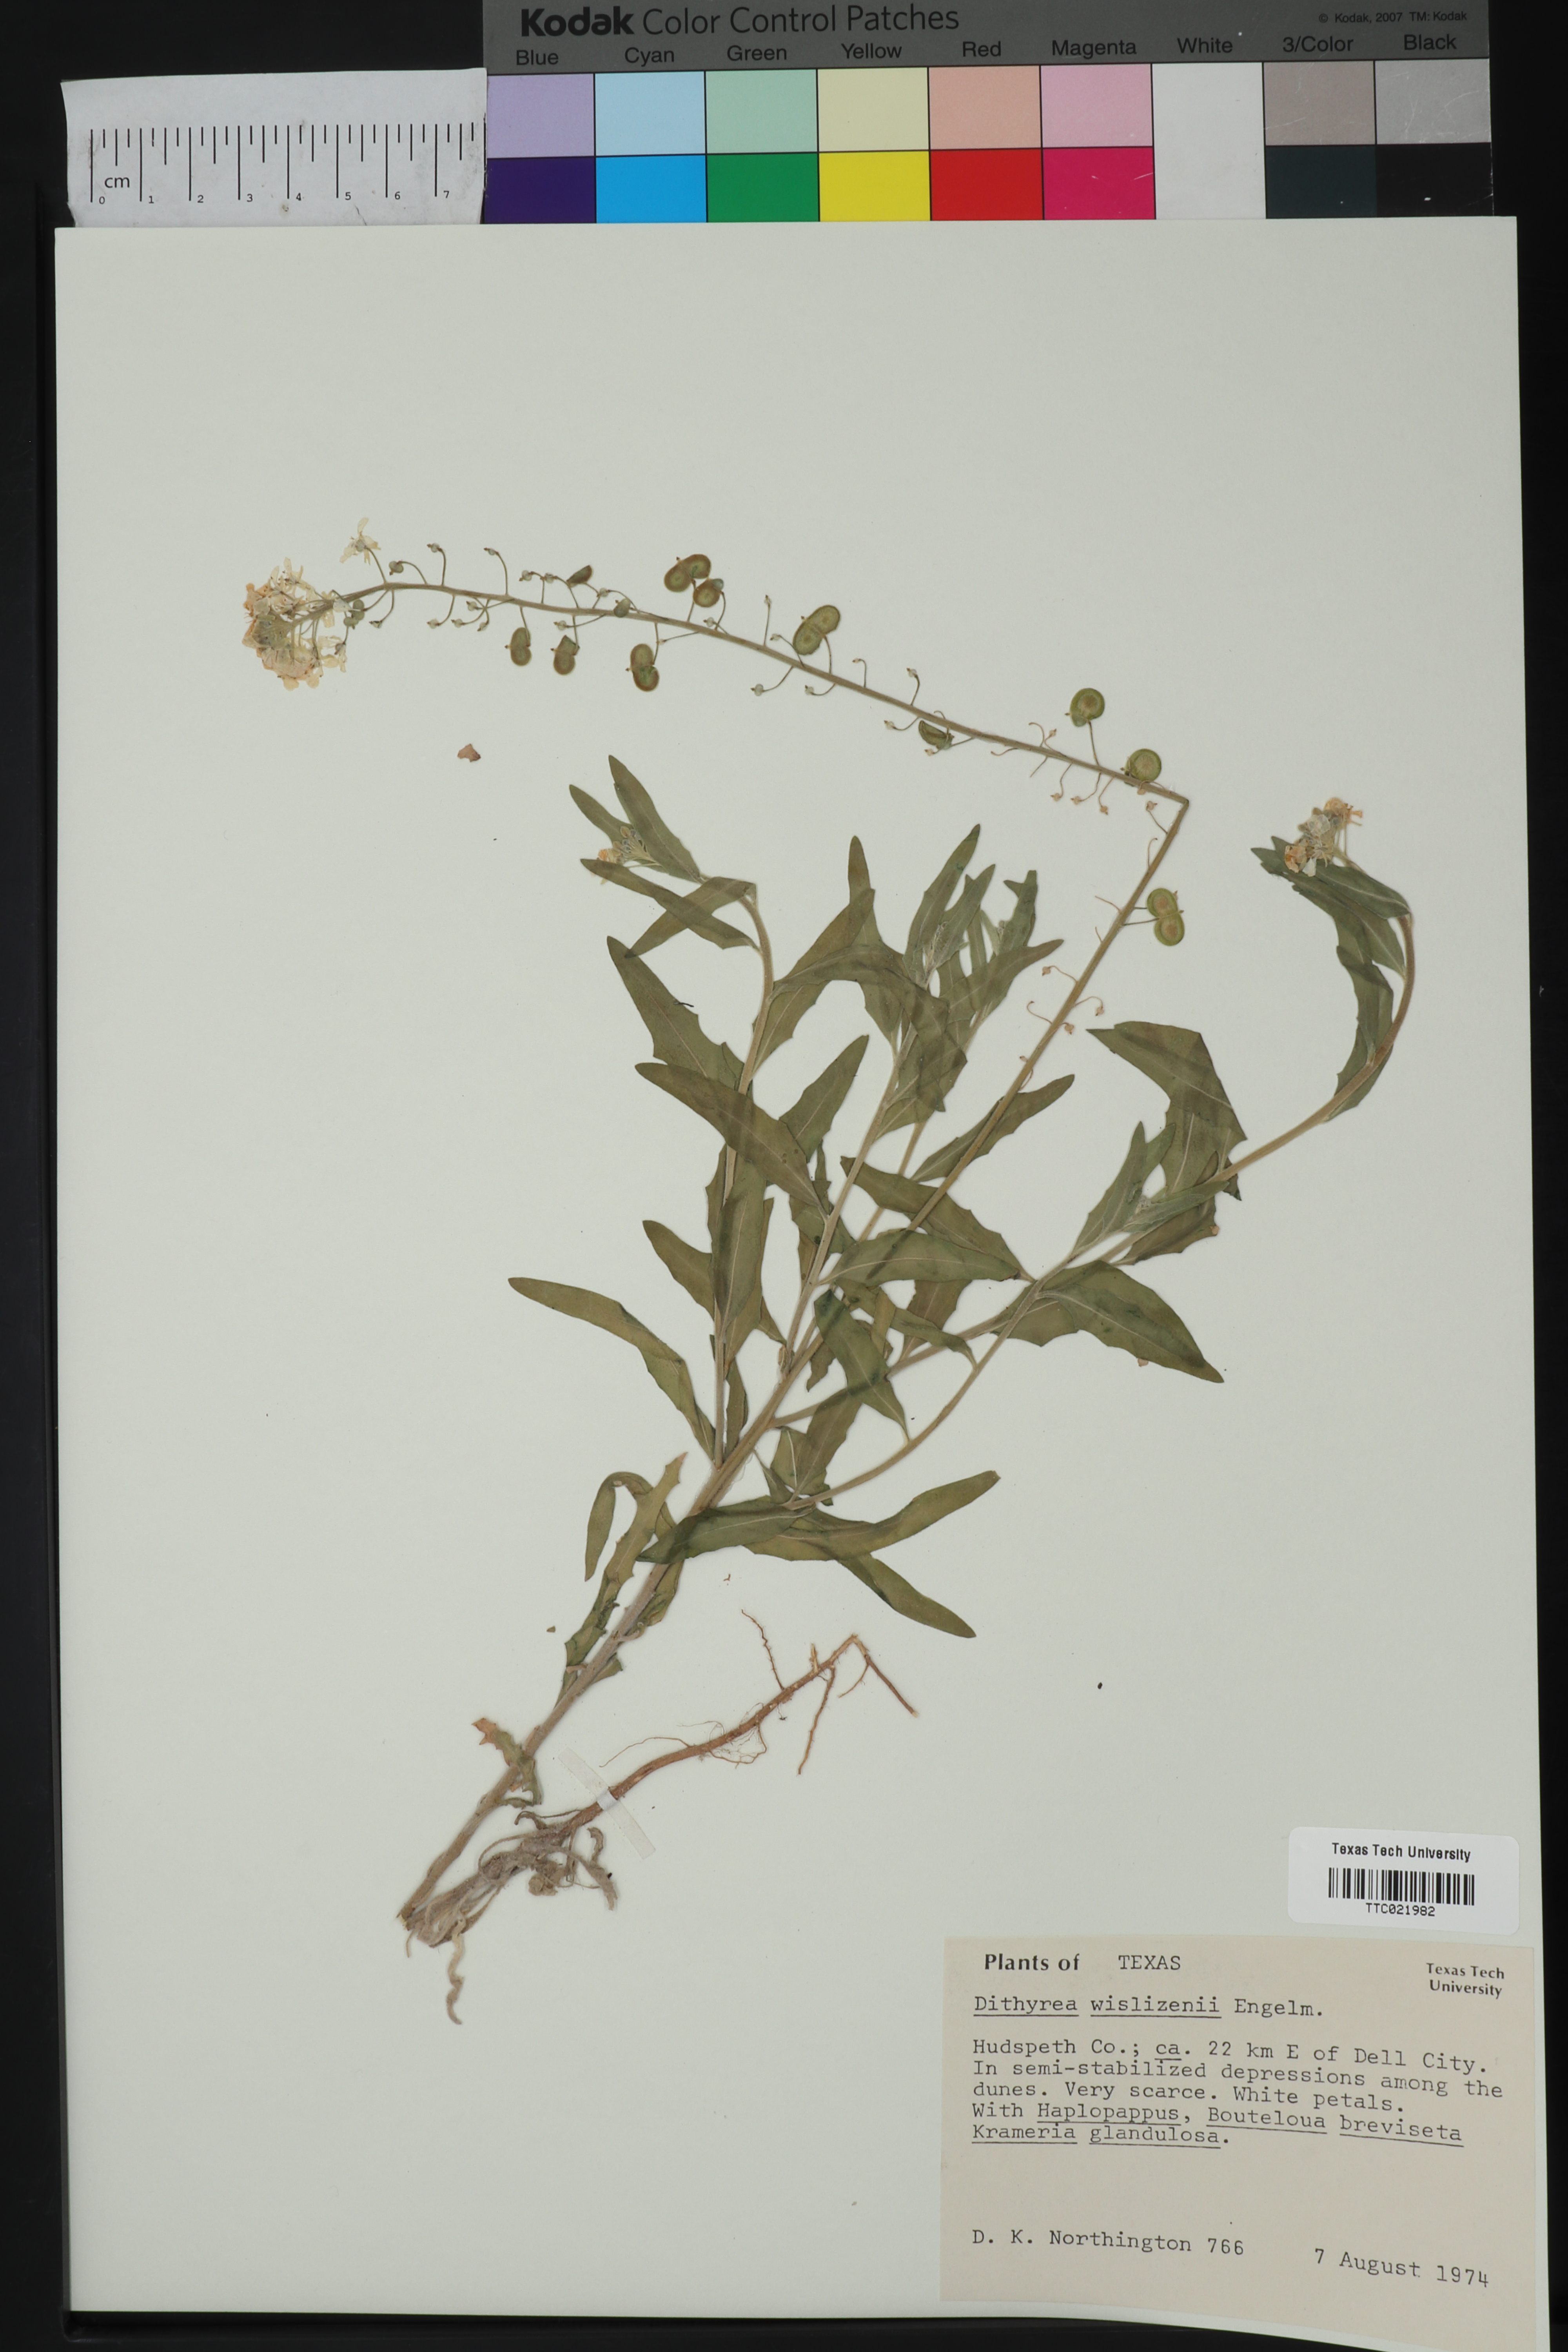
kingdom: Plantae
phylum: Tracheophyta
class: Magnoliopsida
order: Brassicales
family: Brassicaceae
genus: Dimorphocarpa
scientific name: Dimorphocarpa wislizenii
